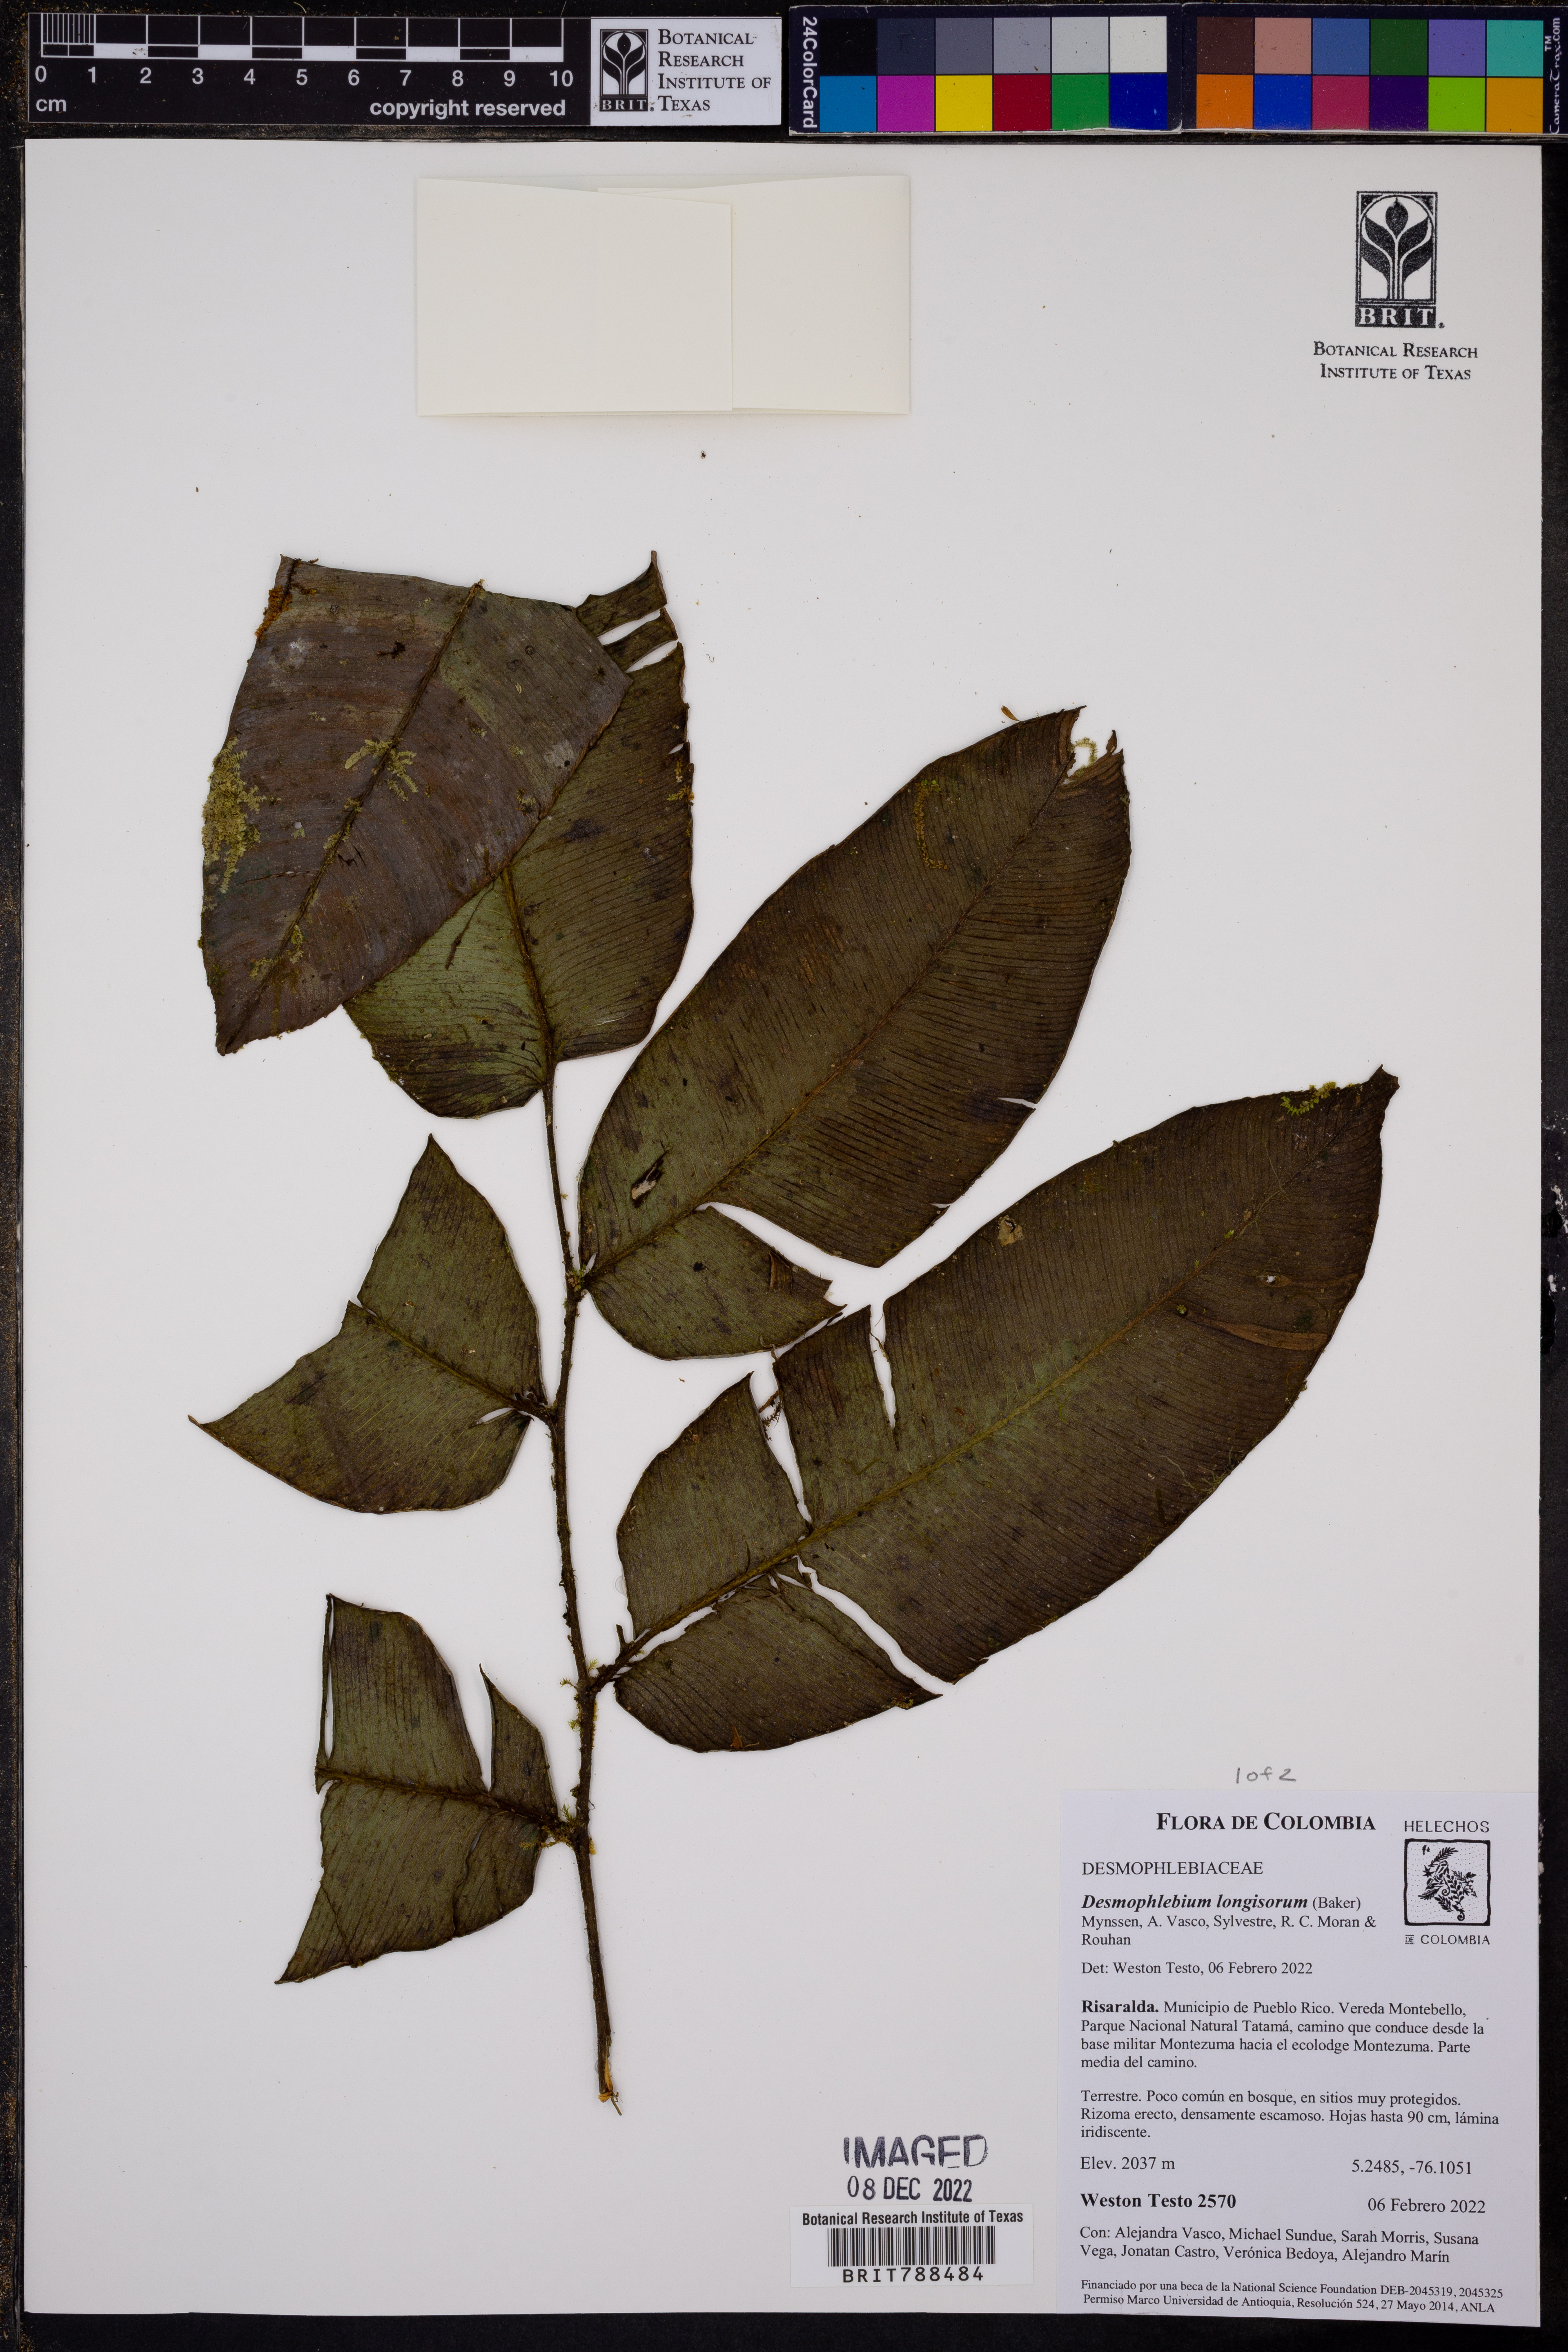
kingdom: Plantae
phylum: Tracheophyta
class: Polypodiopsida
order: Polypodiales
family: Desmophlebiaceae
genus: Desmophlebium
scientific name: Desmophlebium longisorum
